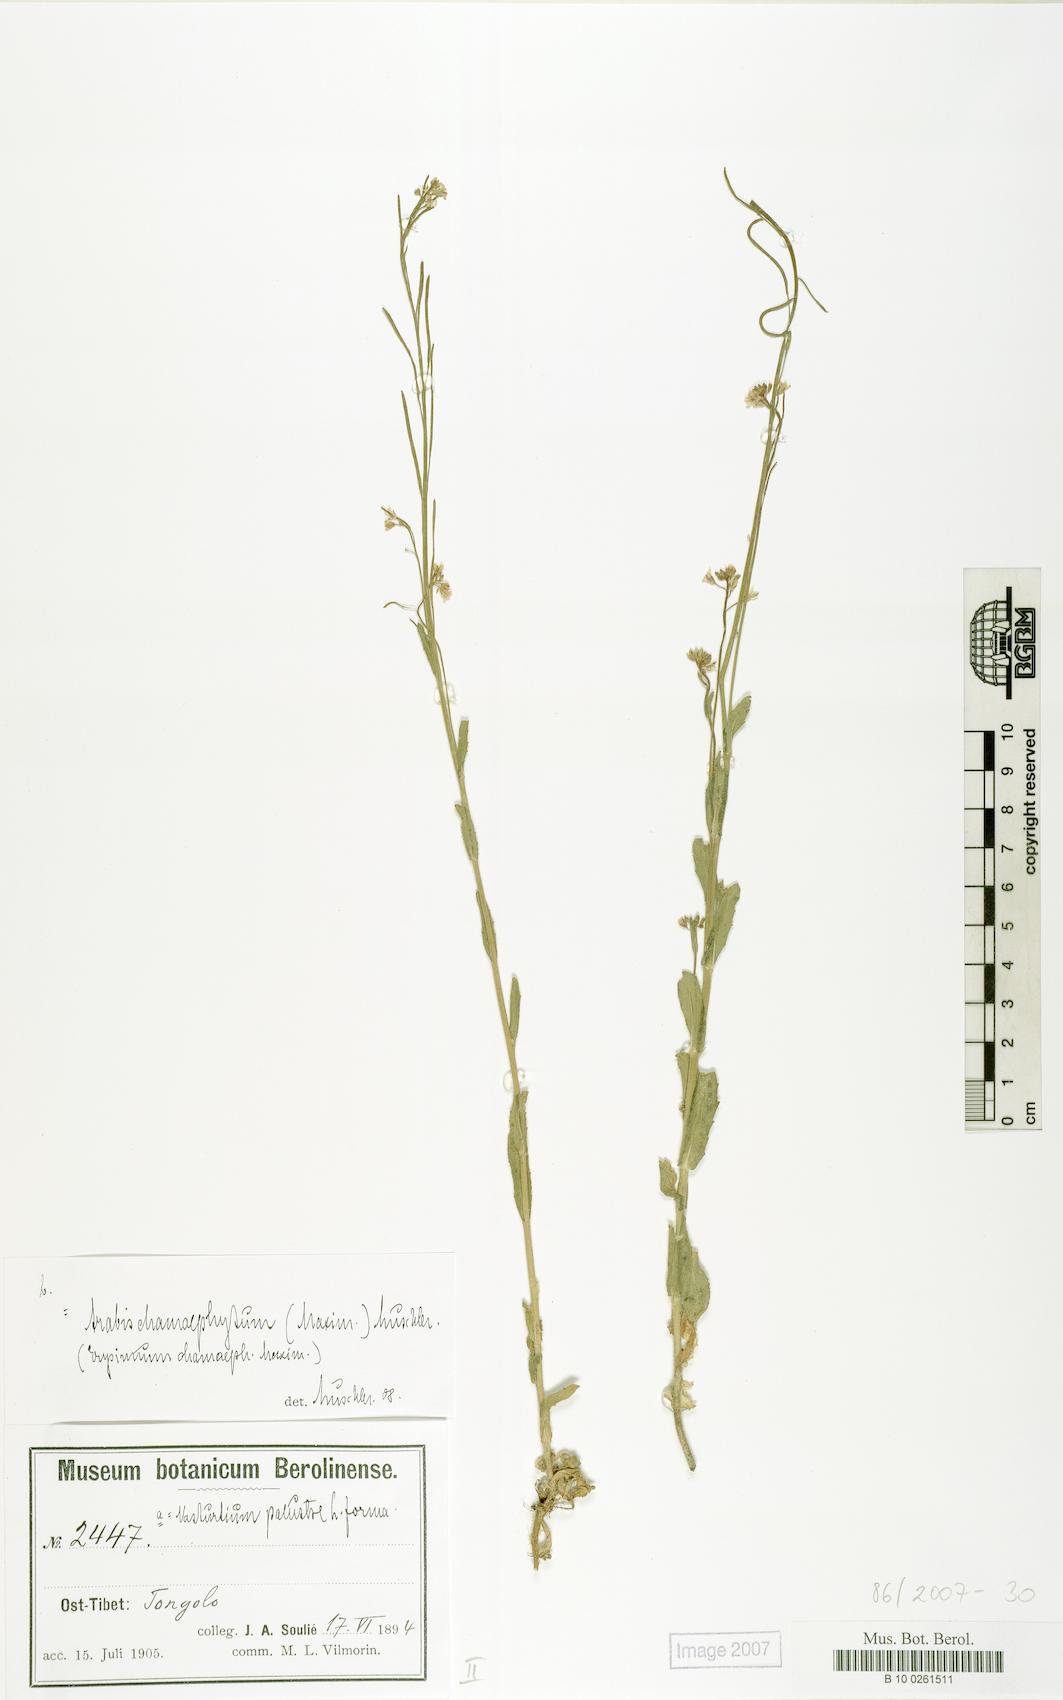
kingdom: Plantae
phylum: Tracheophyta
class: Magnoliopsida
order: Brassicales
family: Brassicaceae
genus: Arabis
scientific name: Arabis
